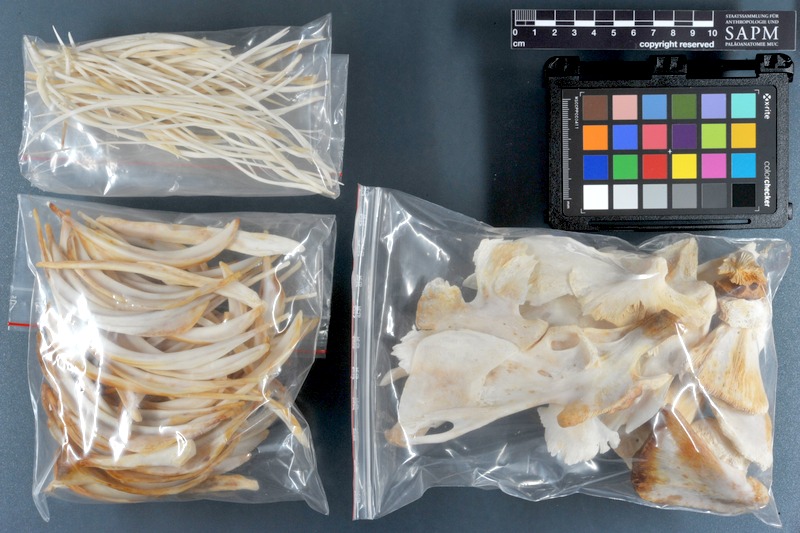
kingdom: Animalia
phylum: Chordata
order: Osteoglossiformes
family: Arapaimidae
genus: Arapaima
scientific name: Arapaima gigas
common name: Arapaima
